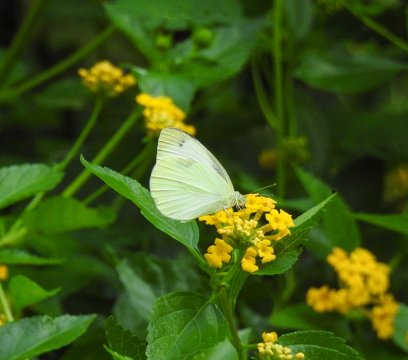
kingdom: Animalia
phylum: Arthropoda
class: Insecta
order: Lepidoptera
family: Pieridae
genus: Pieris
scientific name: Pieris rapae
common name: Cabbage White
